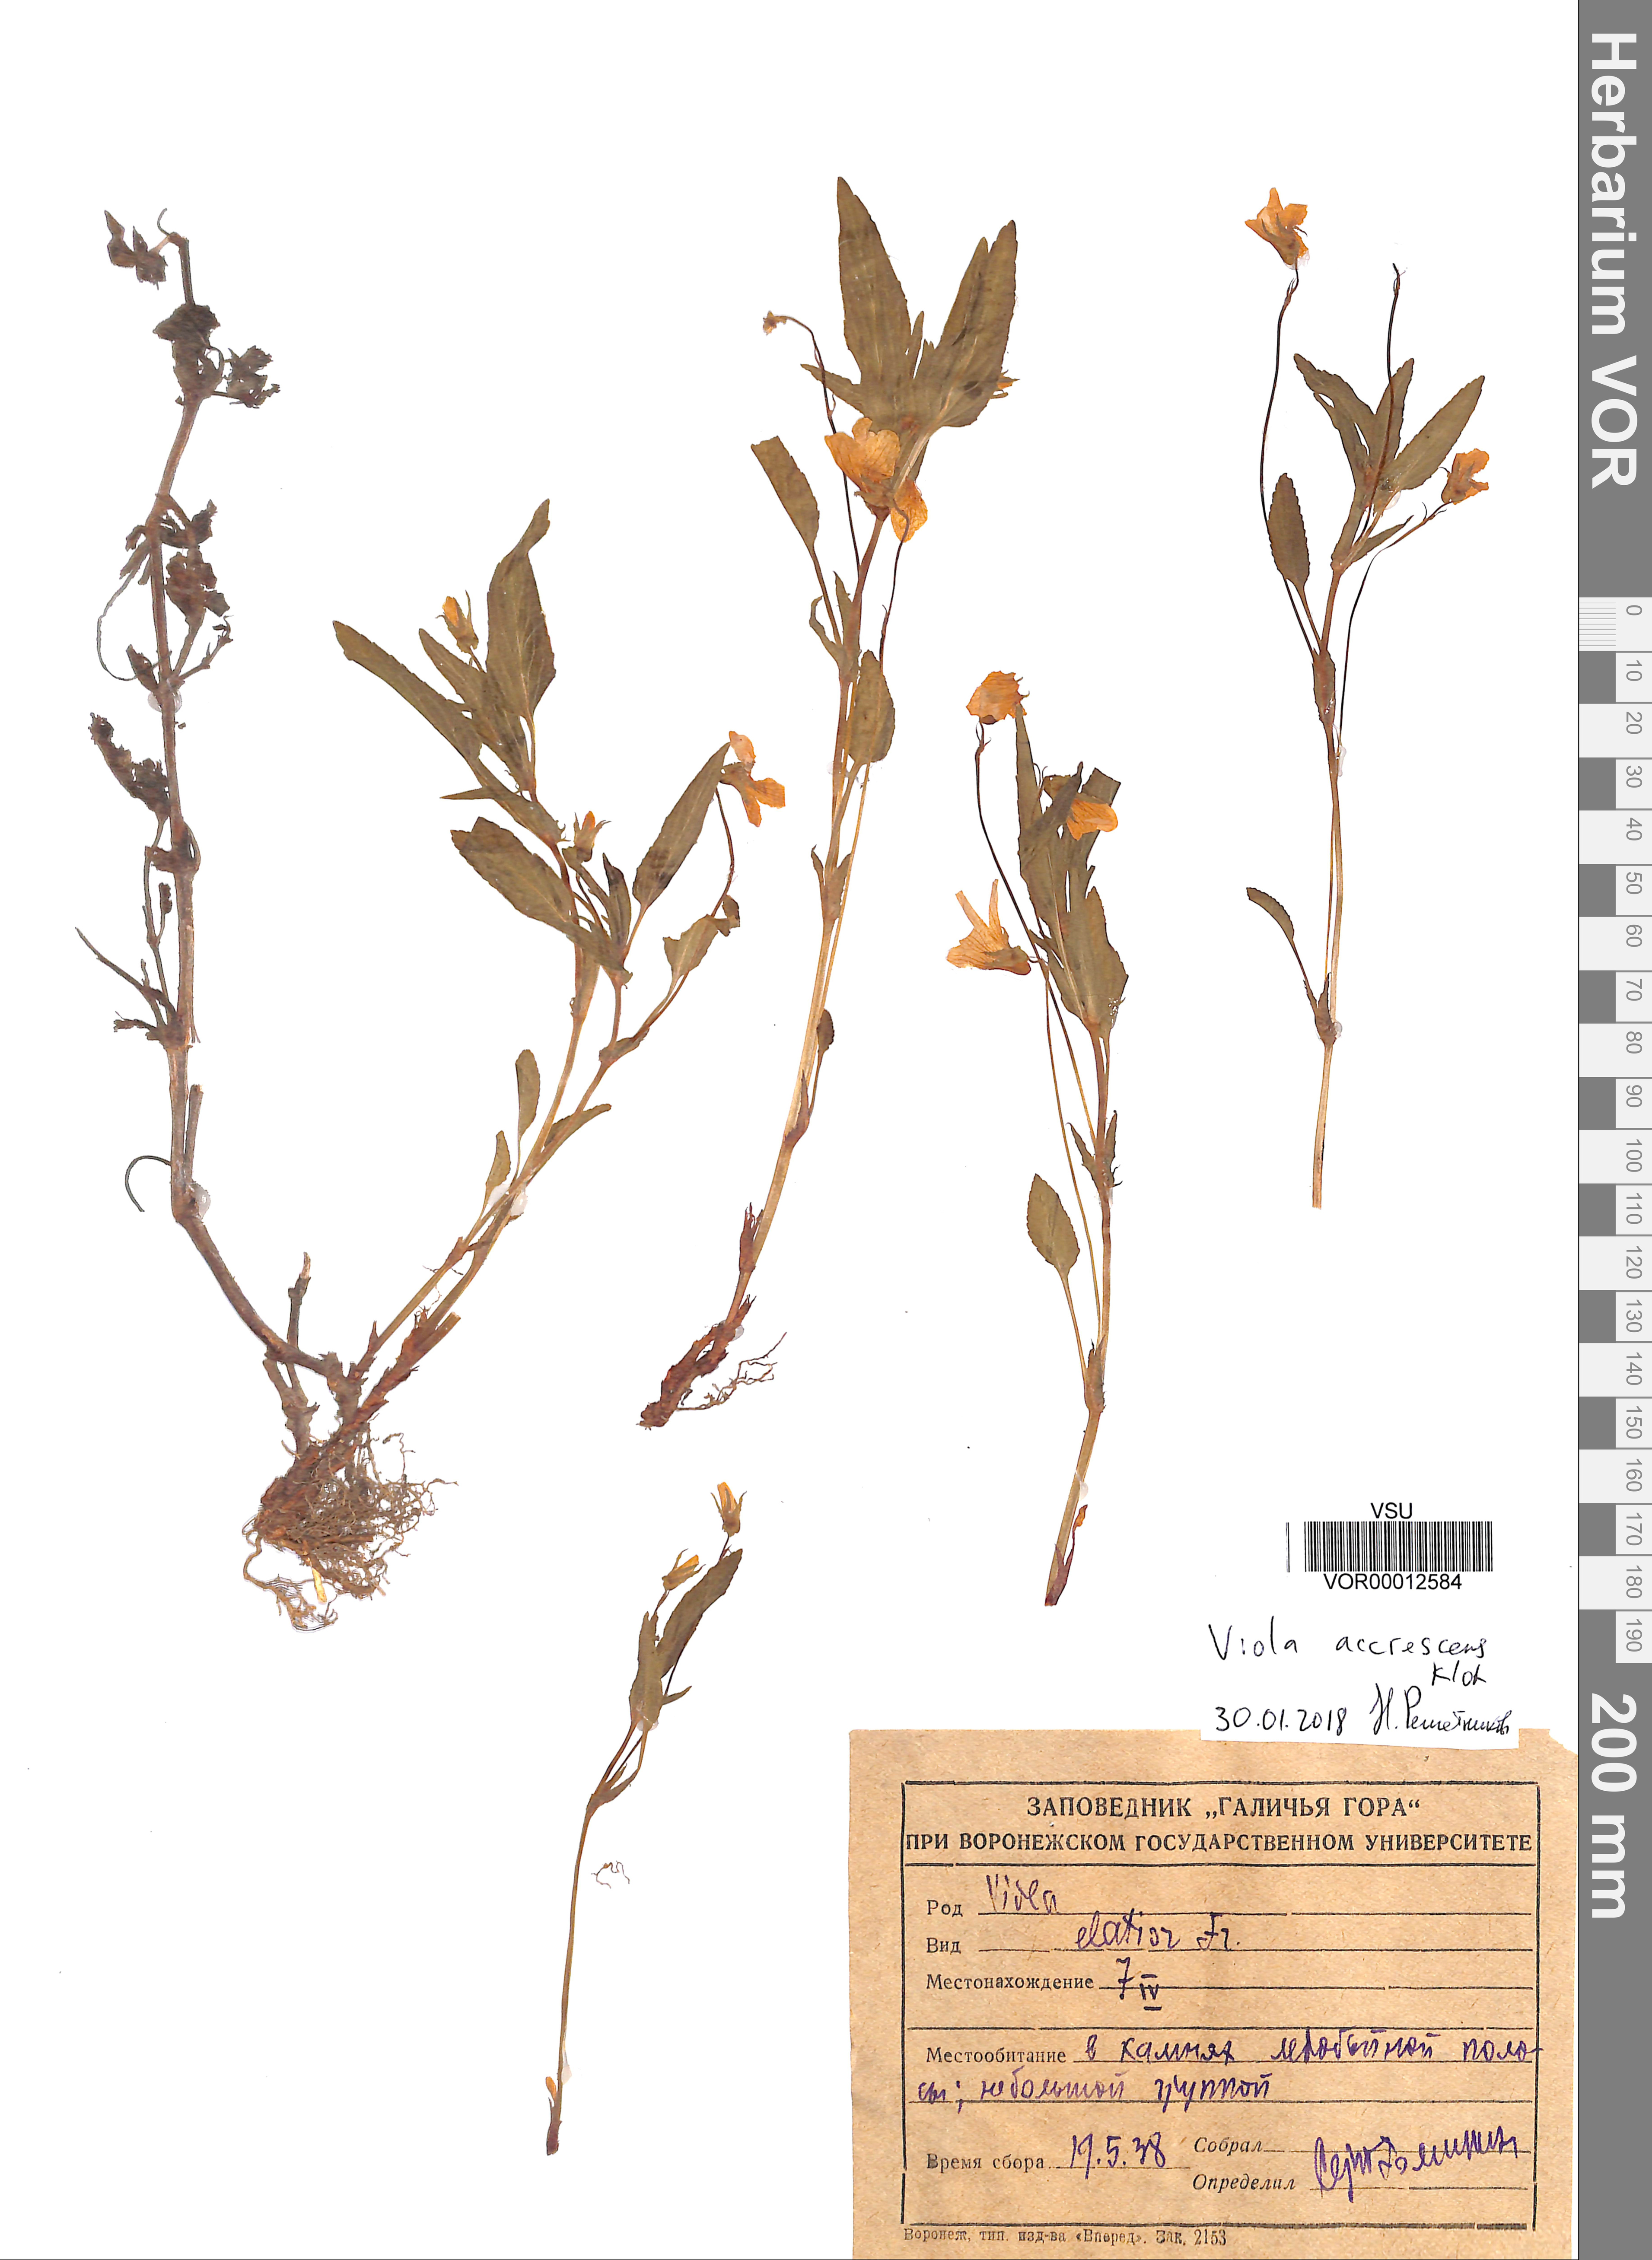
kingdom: Plantae
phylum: Tracheophyta
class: Magnoliopsida
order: Malpighiales
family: Violaceae
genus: Viola
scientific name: Viola pumila
